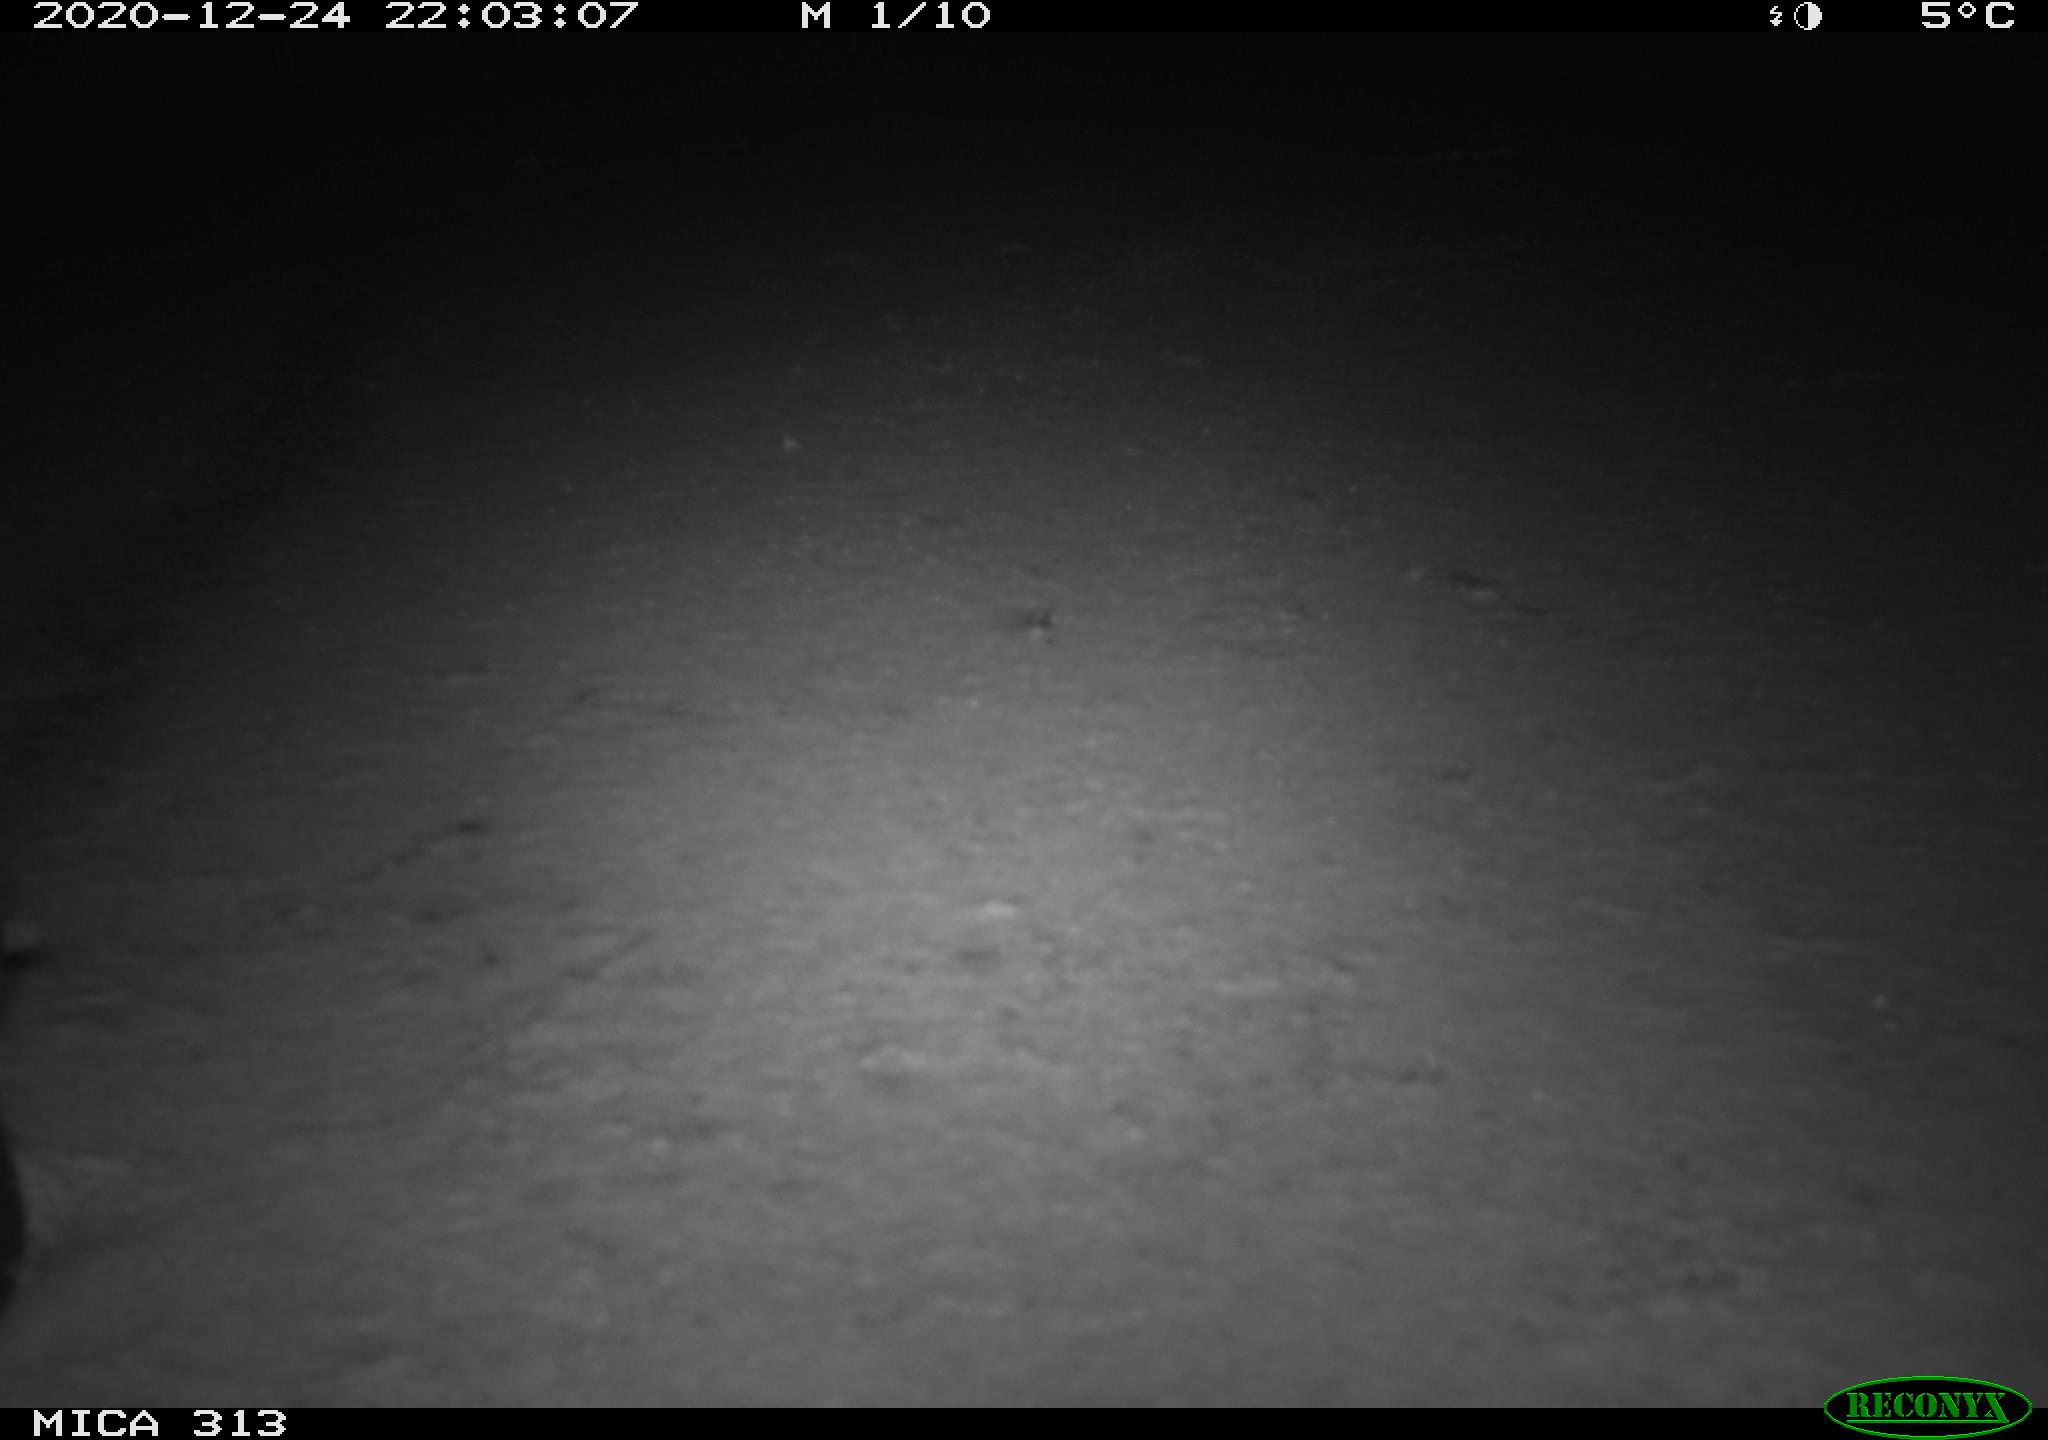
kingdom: Animalia
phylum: Chordata
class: Aves
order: Gruiformes
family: Rallidae
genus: Fulica
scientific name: Fulica atra
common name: Eurasian coot
